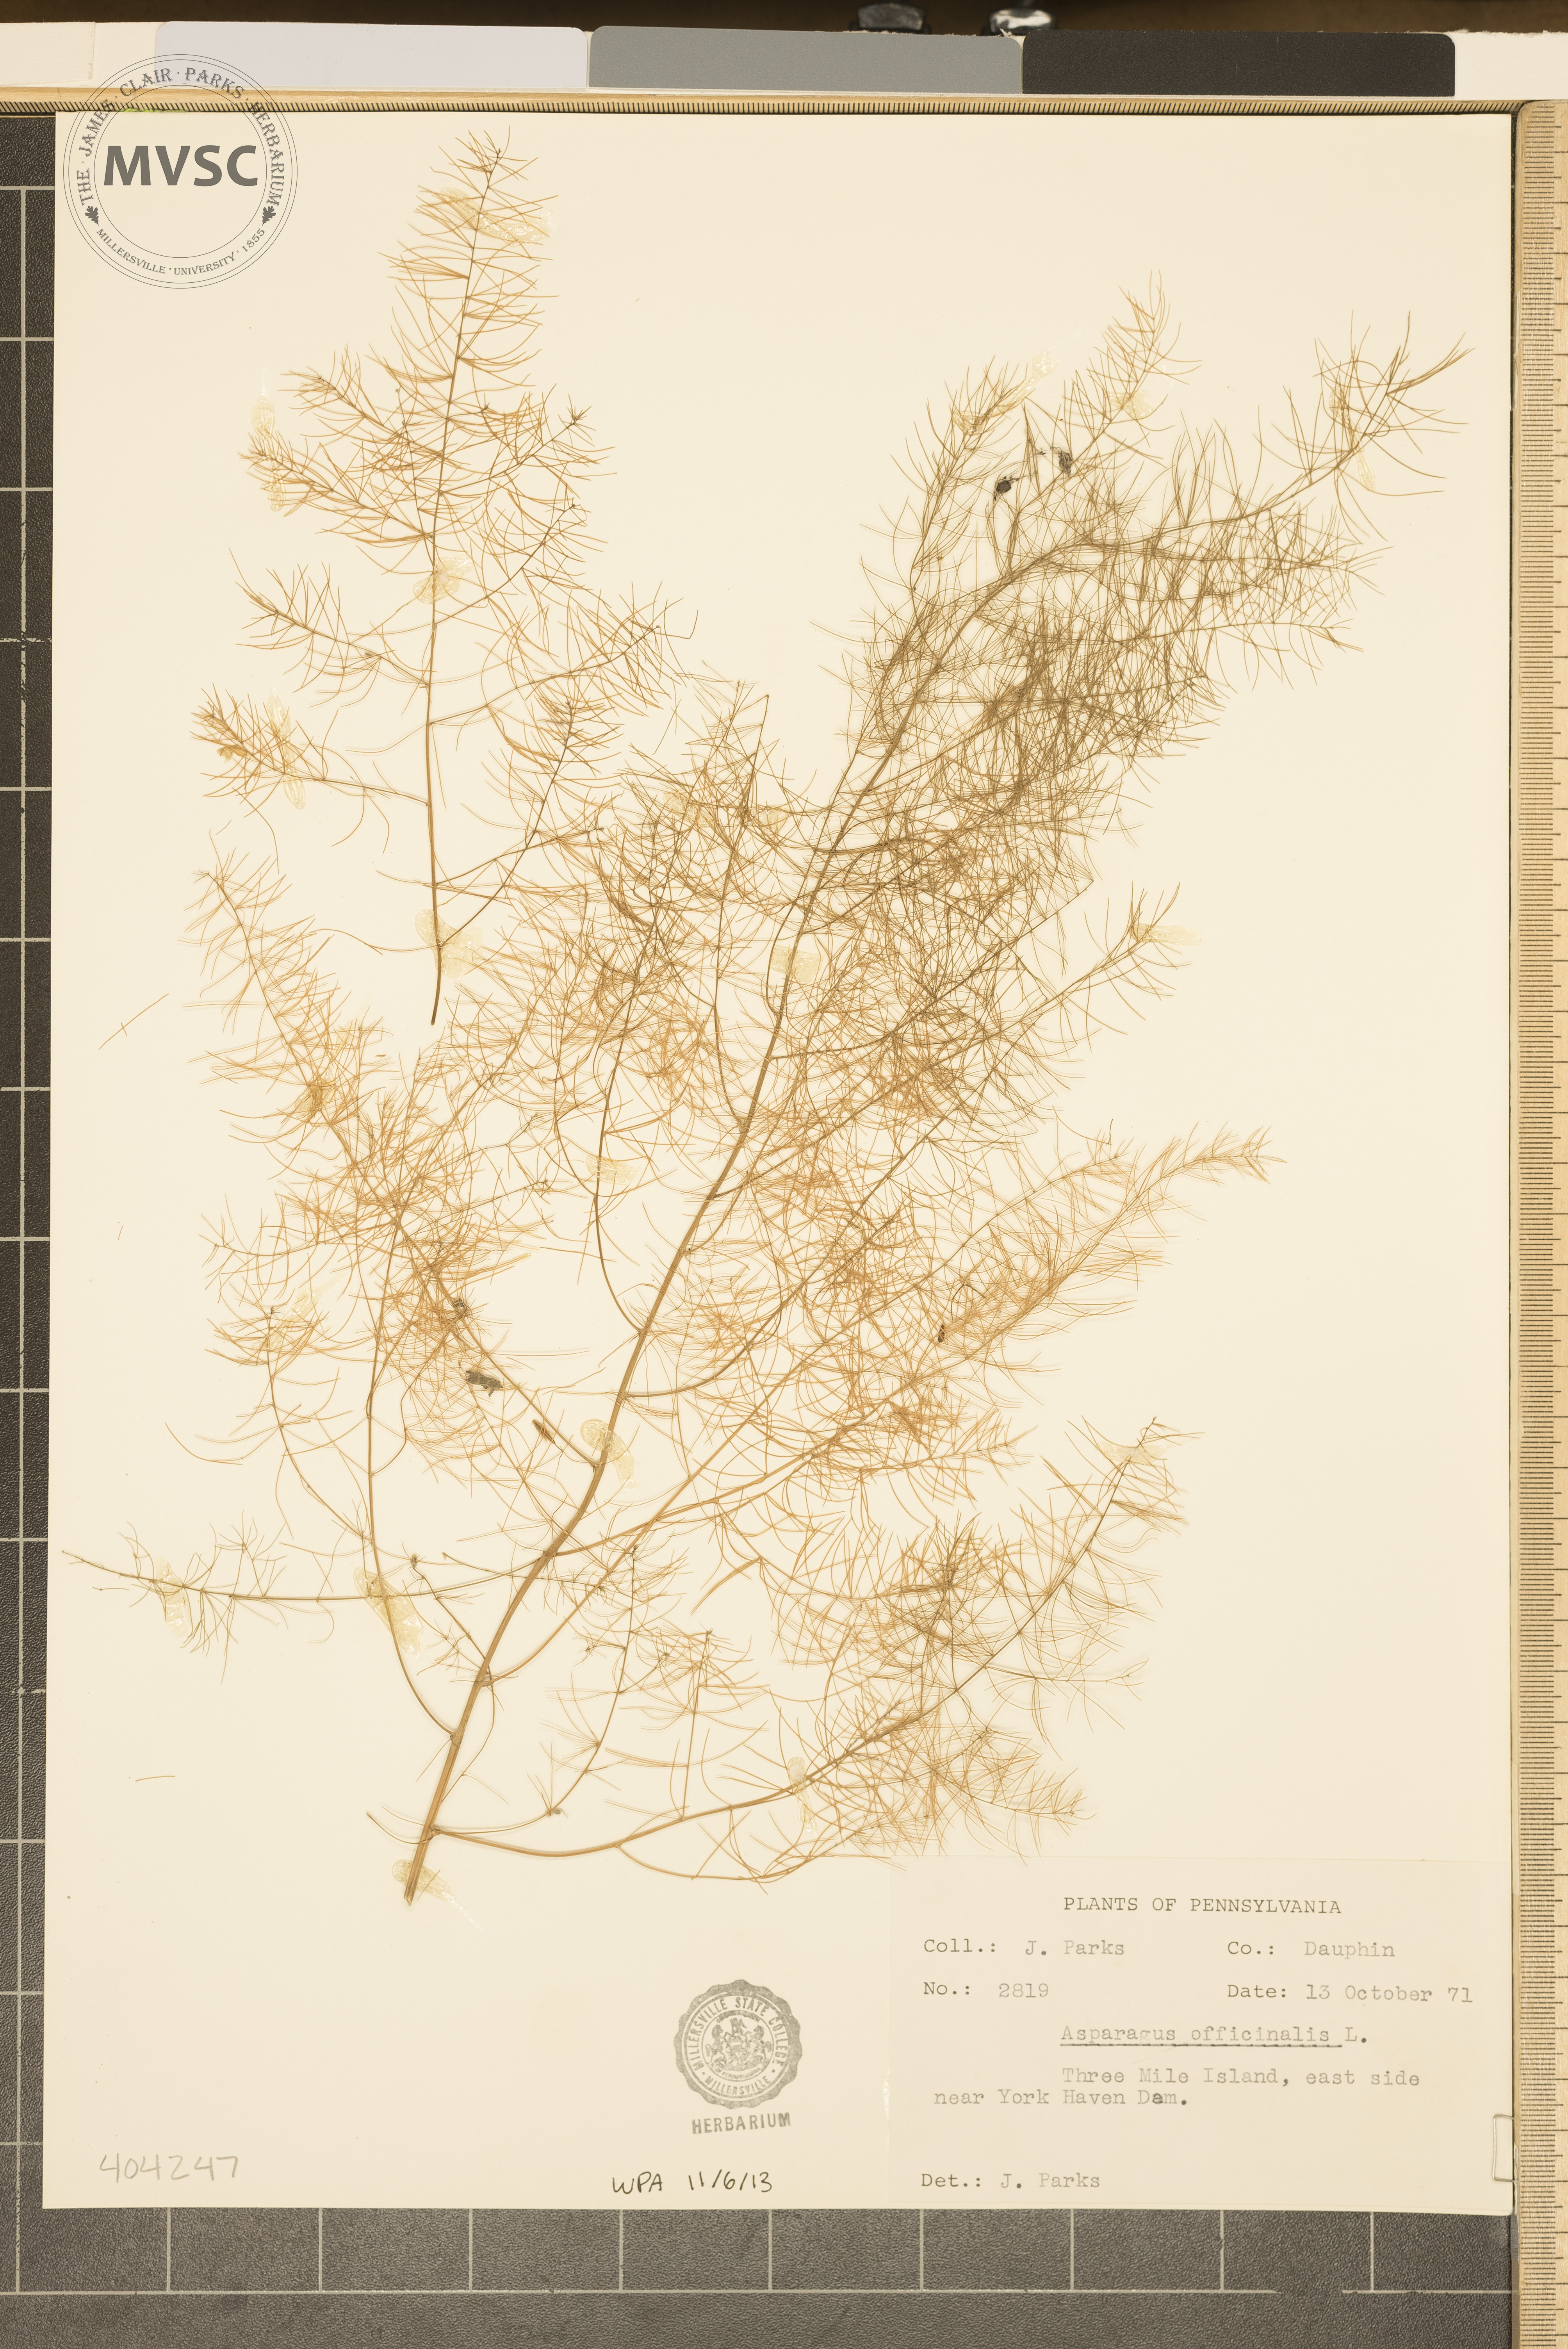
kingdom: Plantae
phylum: Tracheophyta
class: Liliopsida
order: Asparagales
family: Asparagaceae
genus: Asparagus
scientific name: Asparagus officinalis
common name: Garden asparagus
